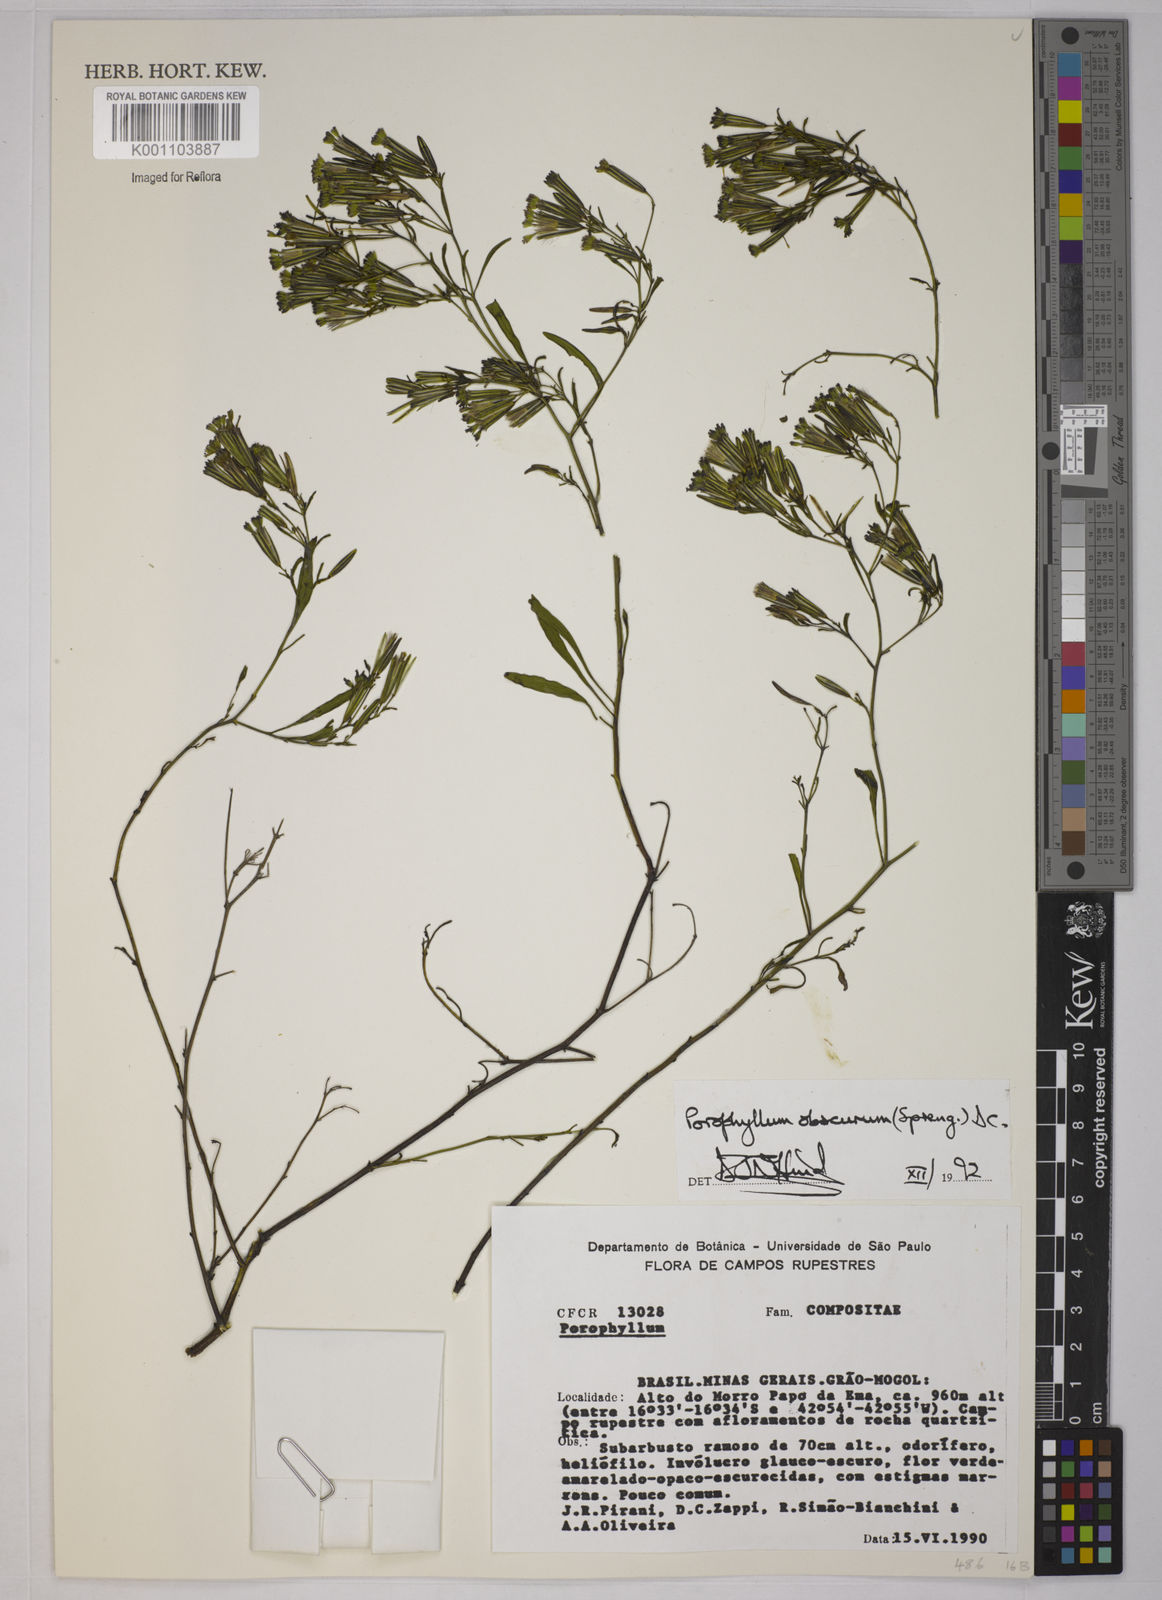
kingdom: Plantae
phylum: Tracheophyta
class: Magnoliopsida
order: Asterales
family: Asteraceae
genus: Porophyllum
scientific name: Porophyllum obscurum
